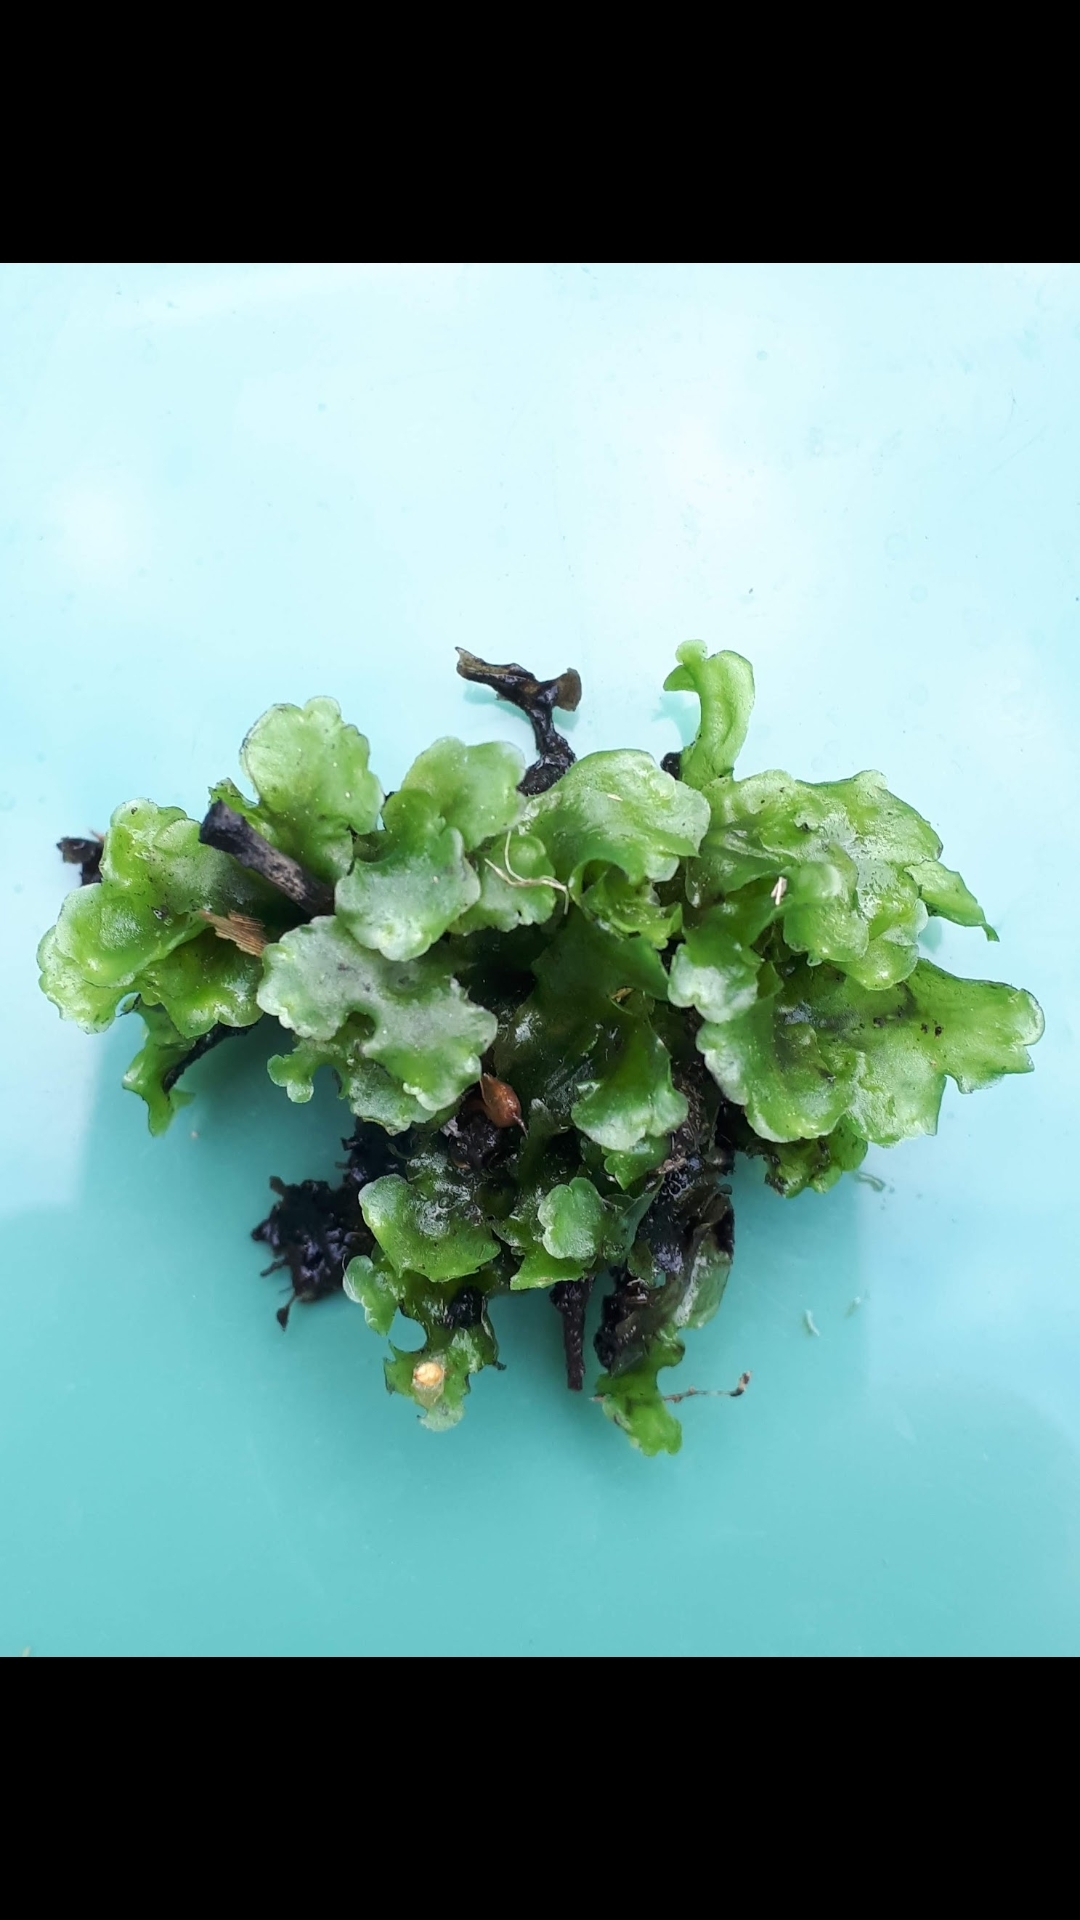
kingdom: Plantae
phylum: Marchantiophyta
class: Jungermanniopsida
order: Pelliales
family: Pelliaceae
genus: Pellia
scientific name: Pellia
